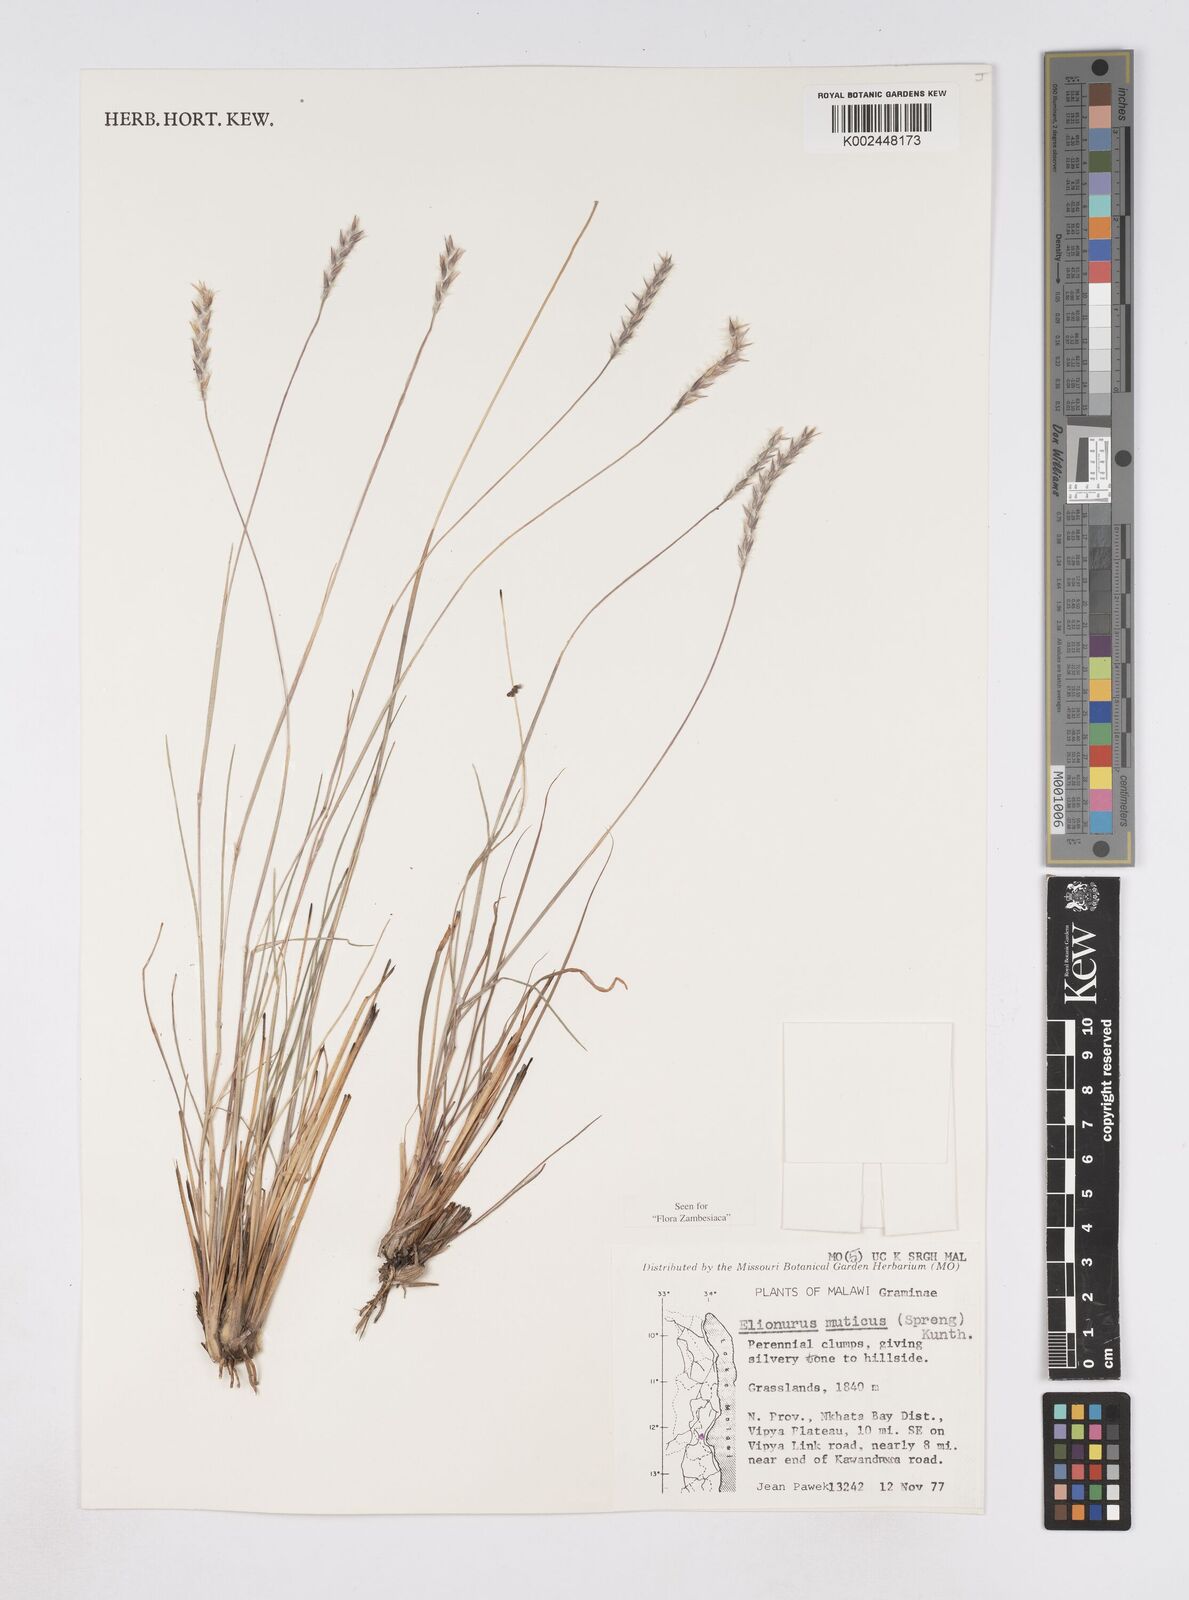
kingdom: Plantae
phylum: Tracheophyta
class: Liliopsida
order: Poales
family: Poaceae
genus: Elionurus
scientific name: Elionurus muticus
